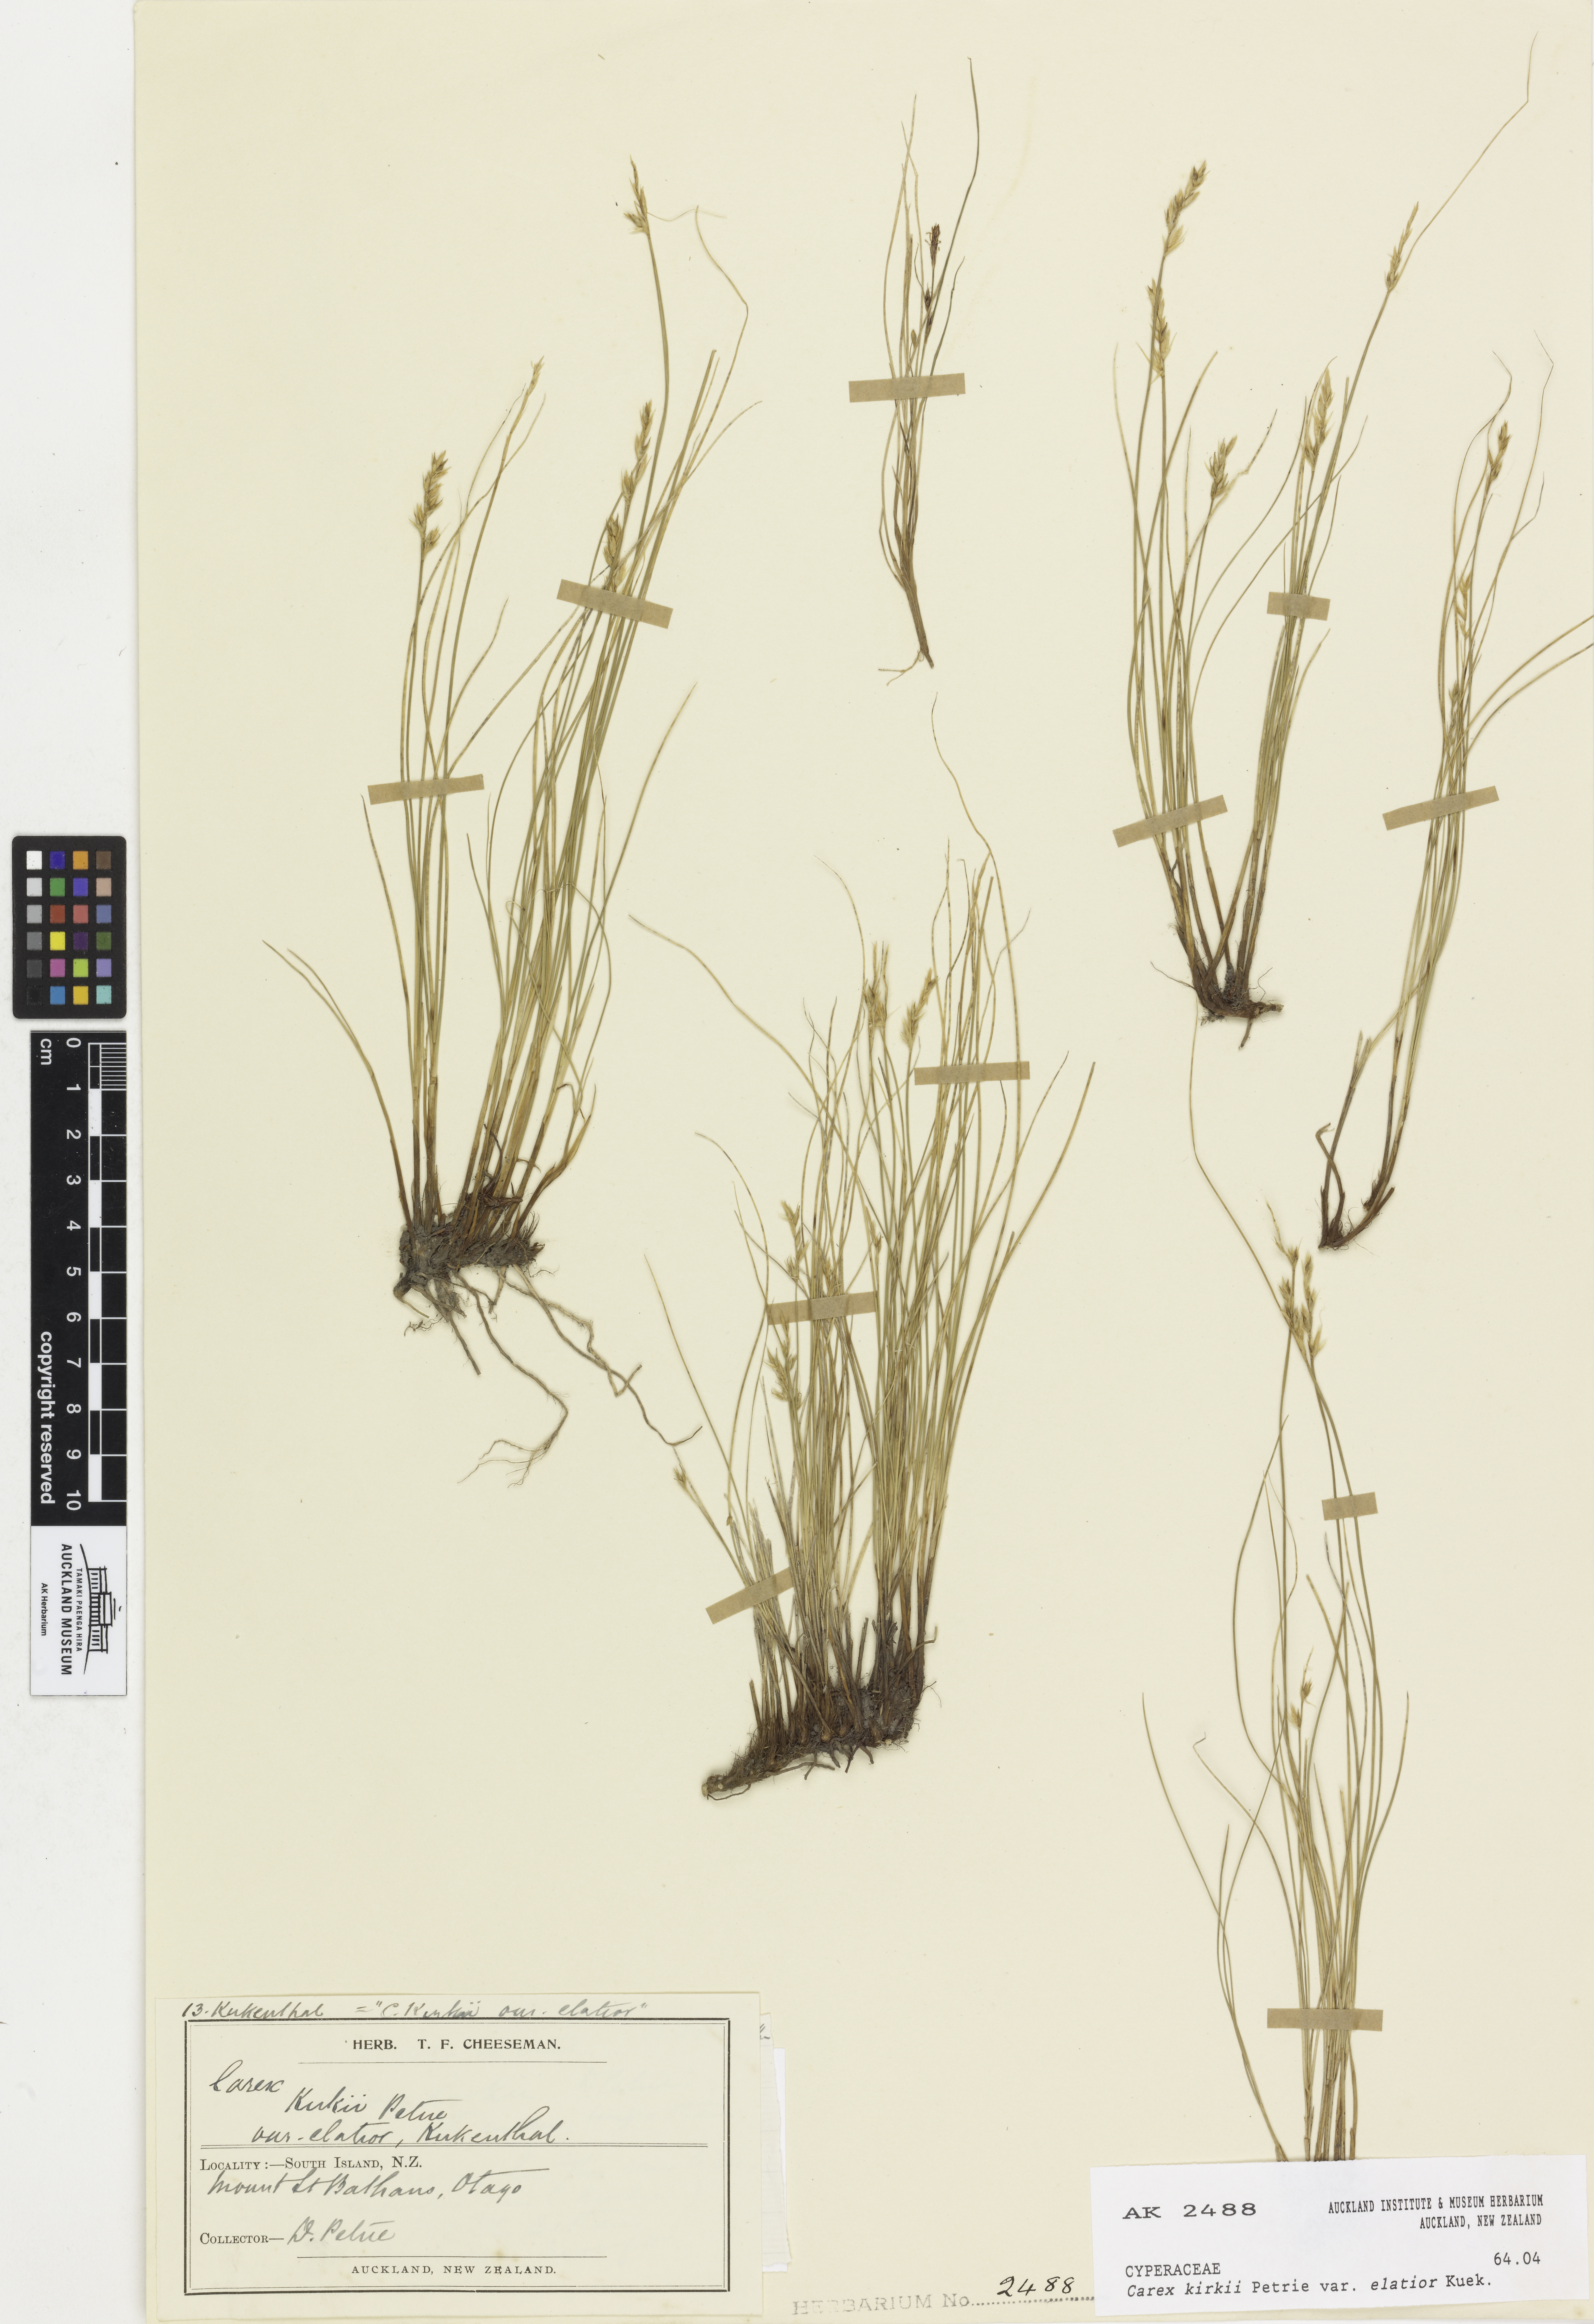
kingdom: Plantae
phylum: Tracheophyta
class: Liliopsida
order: Poales
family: Cyperaceae
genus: Carex
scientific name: Carex kirkii
